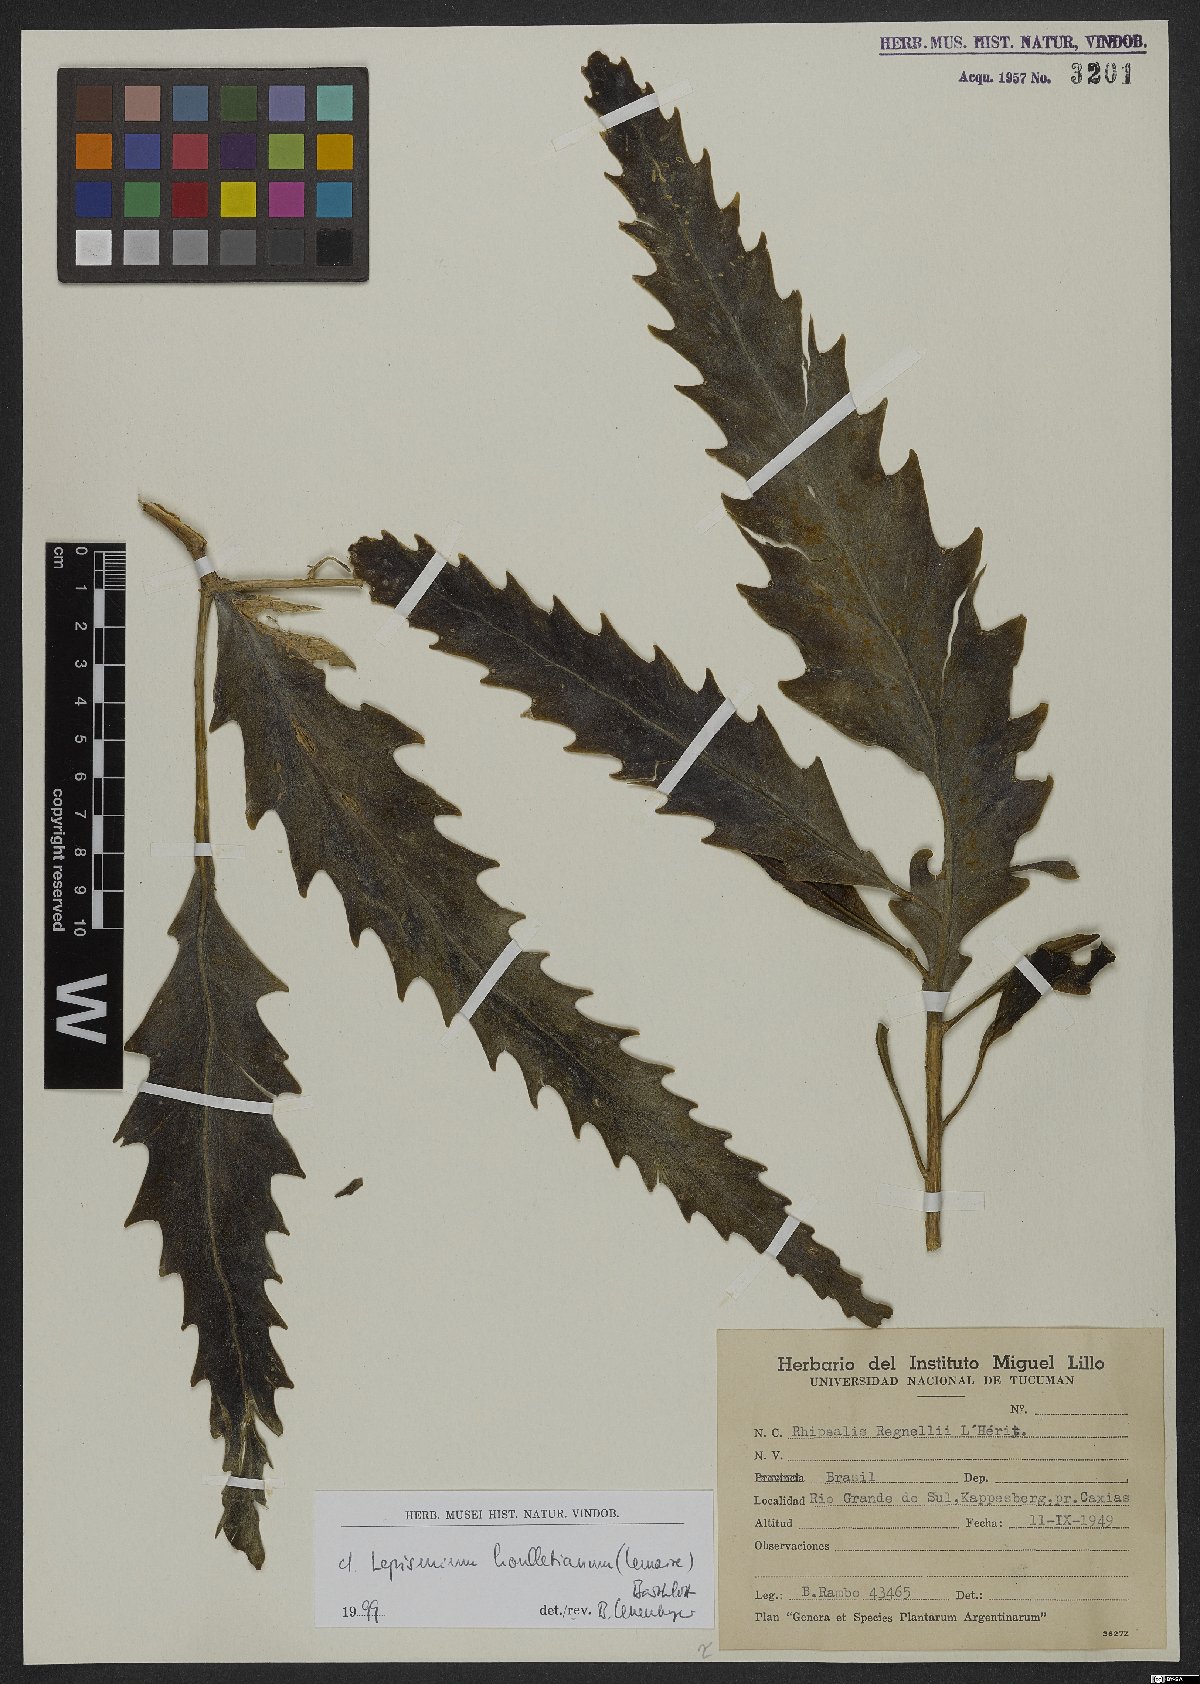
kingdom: Plantae
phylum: Tracheophyta
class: Magnoliopsida
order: Caryophyllales
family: Cactaceae
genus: Lepismium
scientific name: Lepismium houlletianum
